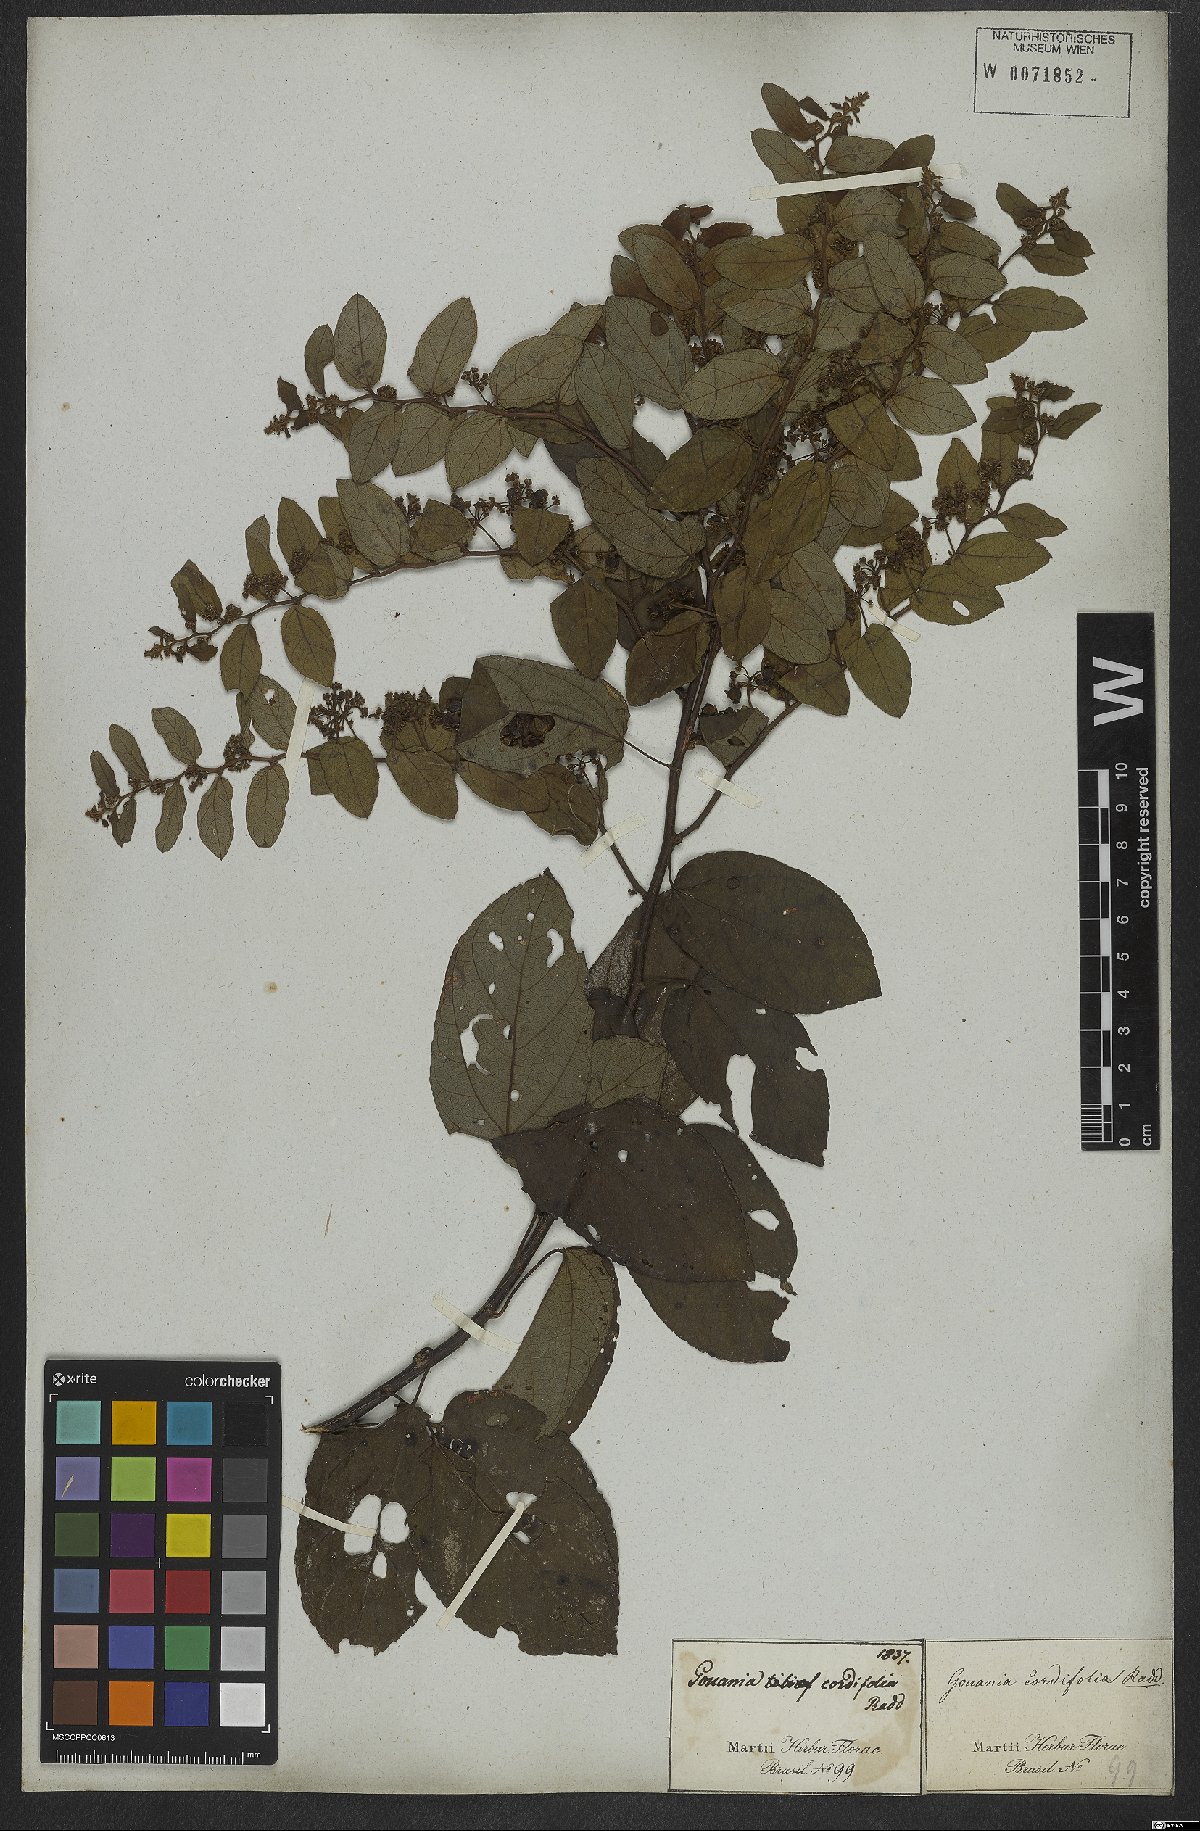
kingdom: Plantae
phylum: Tracheophyta
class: Magnoliopsida
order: Rosales
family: Rhamnaceae
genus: Reissekia
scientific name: Reissekia smilacina
